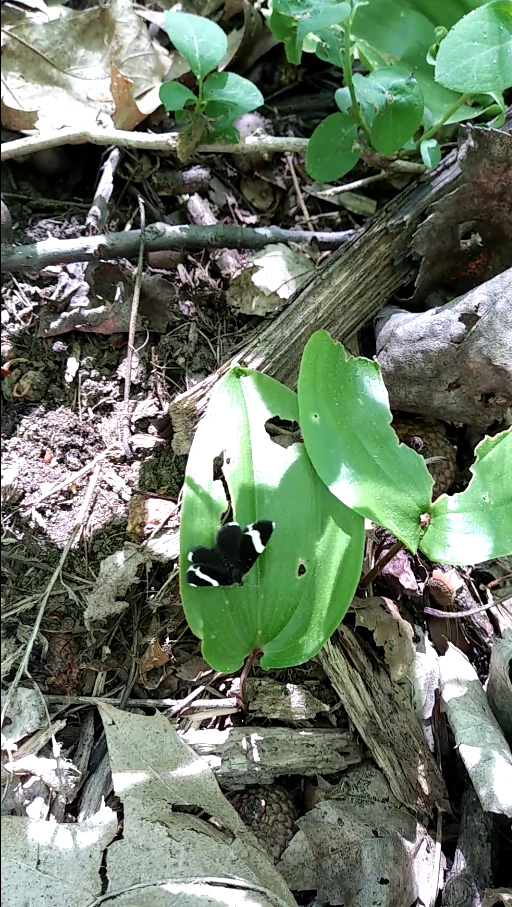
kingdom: Animalia
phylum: Arthropoda
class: Insecta
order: Lepidoptera
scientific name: Lepidoptera
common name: Butterflies
